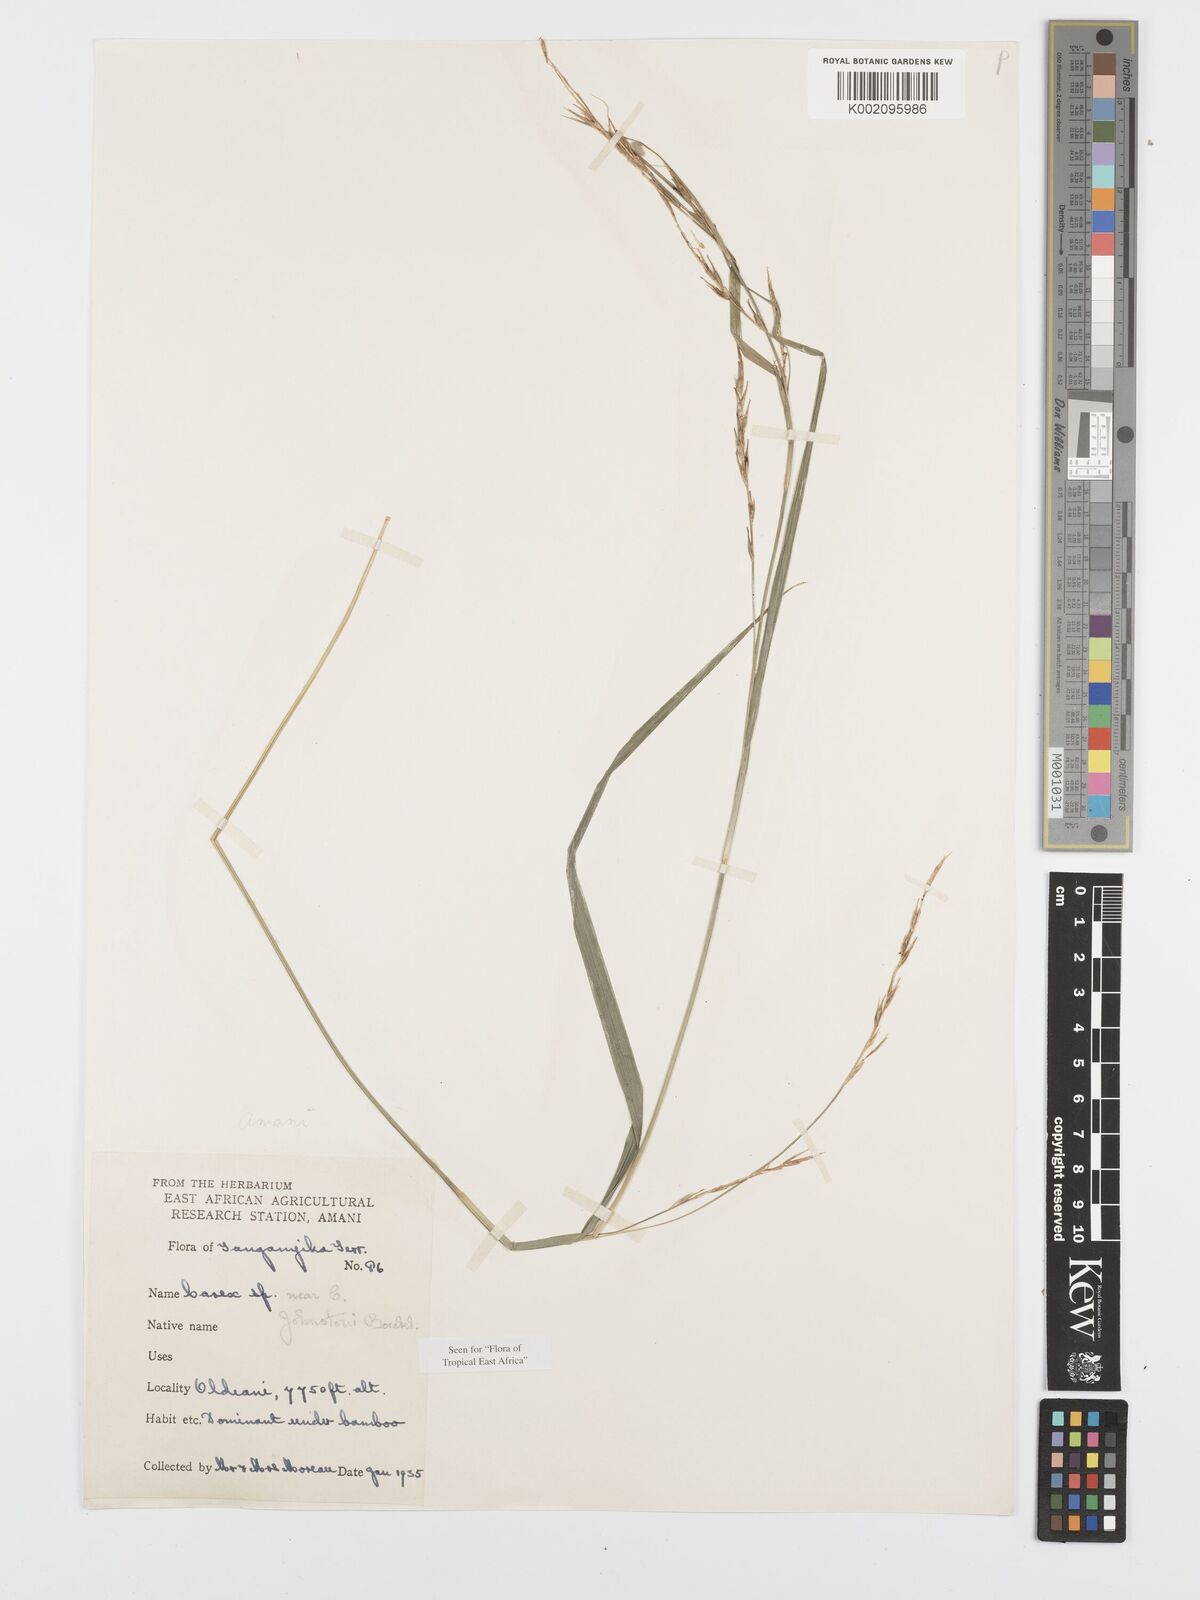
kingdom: Plantae
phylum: Tracheophyta
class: Liliopsida
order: Poales
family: Cyperaceae
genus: Carex
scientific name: Carex johnstonii
